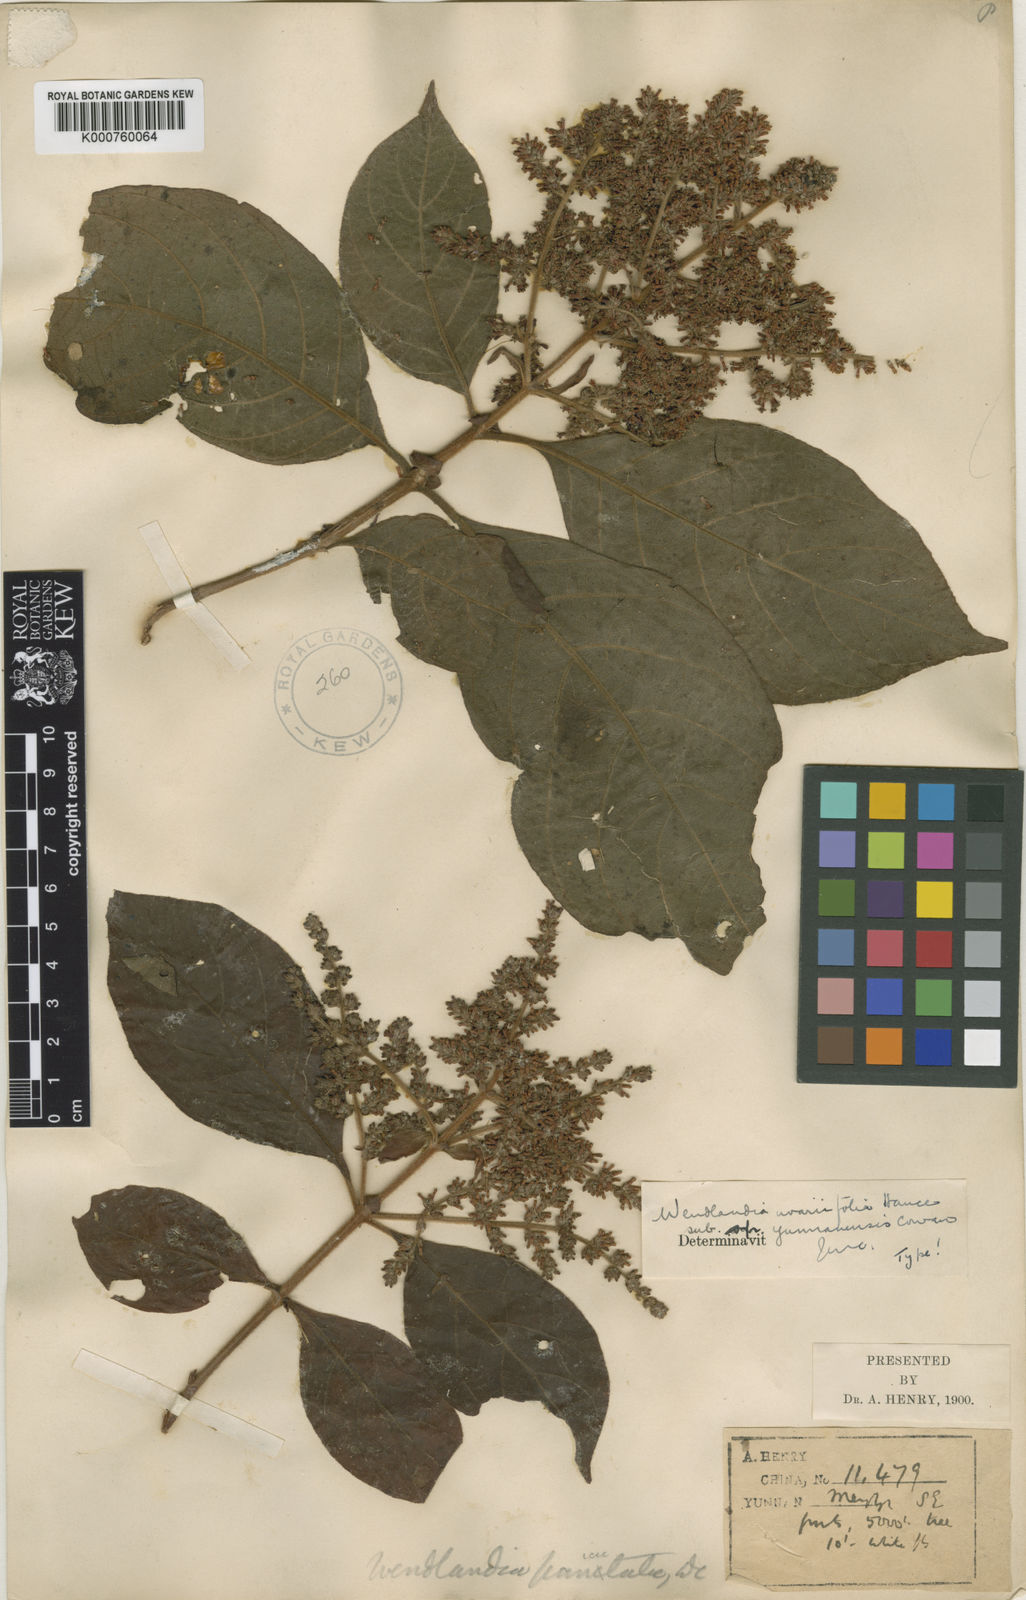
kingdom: Plantae
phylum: Tracheophyta
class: Magnoliopsida
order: Gentianales
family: Rubiaceae
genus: Wendlandia
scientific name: Wendlandia uvariifolia
